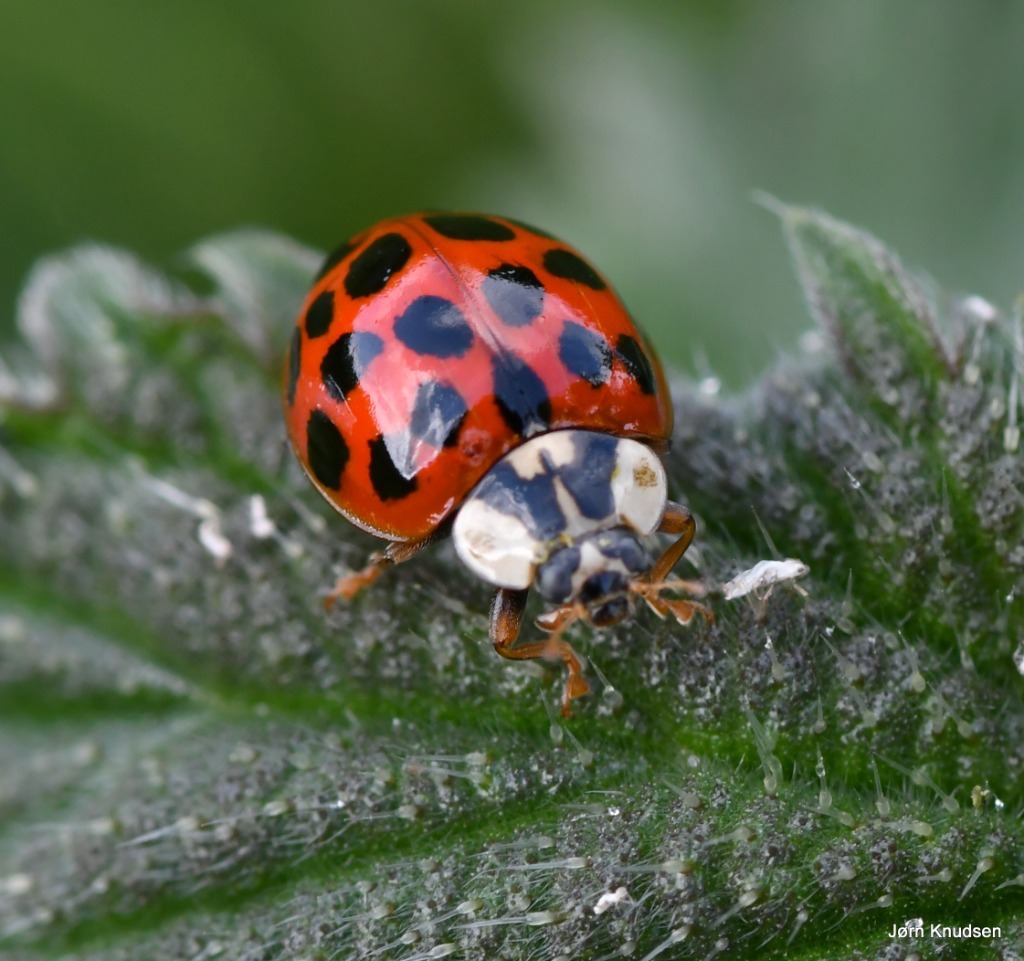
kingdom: Animalia
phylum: Arthropoda
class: Insecta
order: Coleoptera
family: Coccinellidae
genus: Harmonia
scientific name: Harmonia axyridis
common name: Harlekinmariehøne
